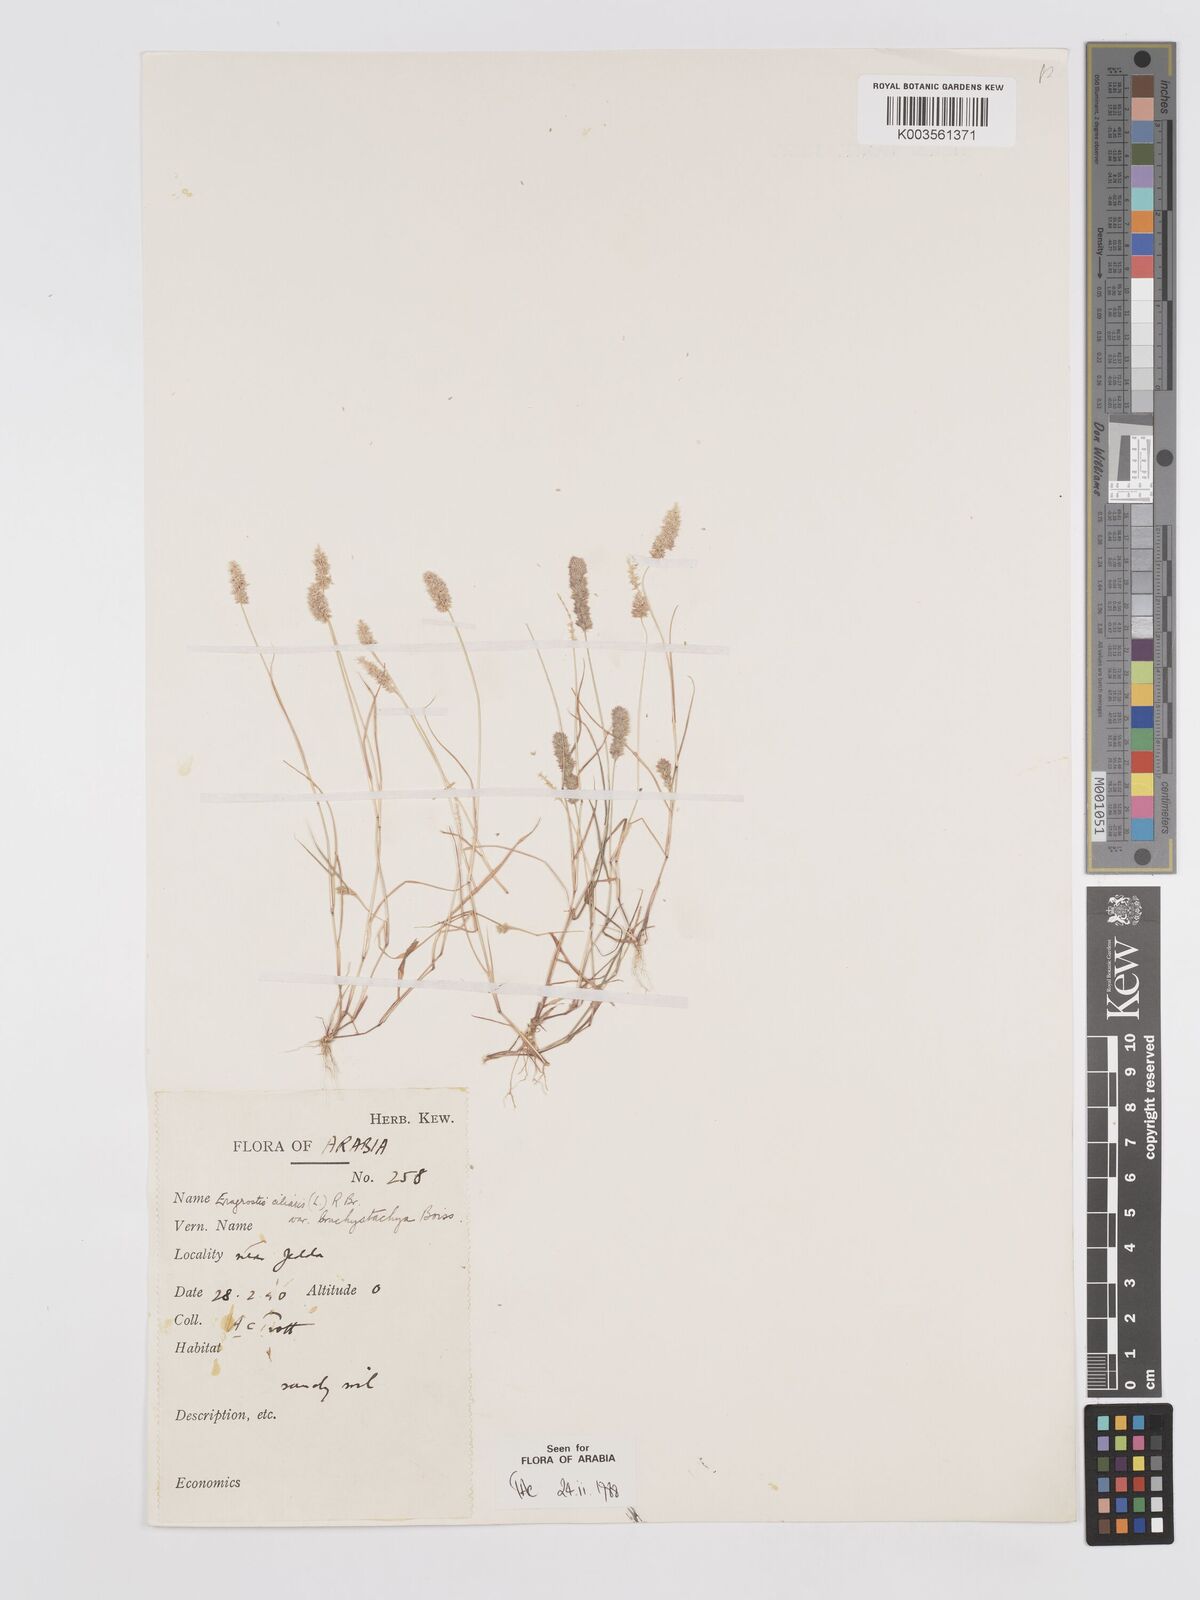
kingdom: Plantae
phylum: Tracheophyta
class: Liliopsida
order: Poales
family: Poaceae
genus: Eragrostis
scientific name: Eragrostis ciliaris
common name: Gophertail lovegrass
